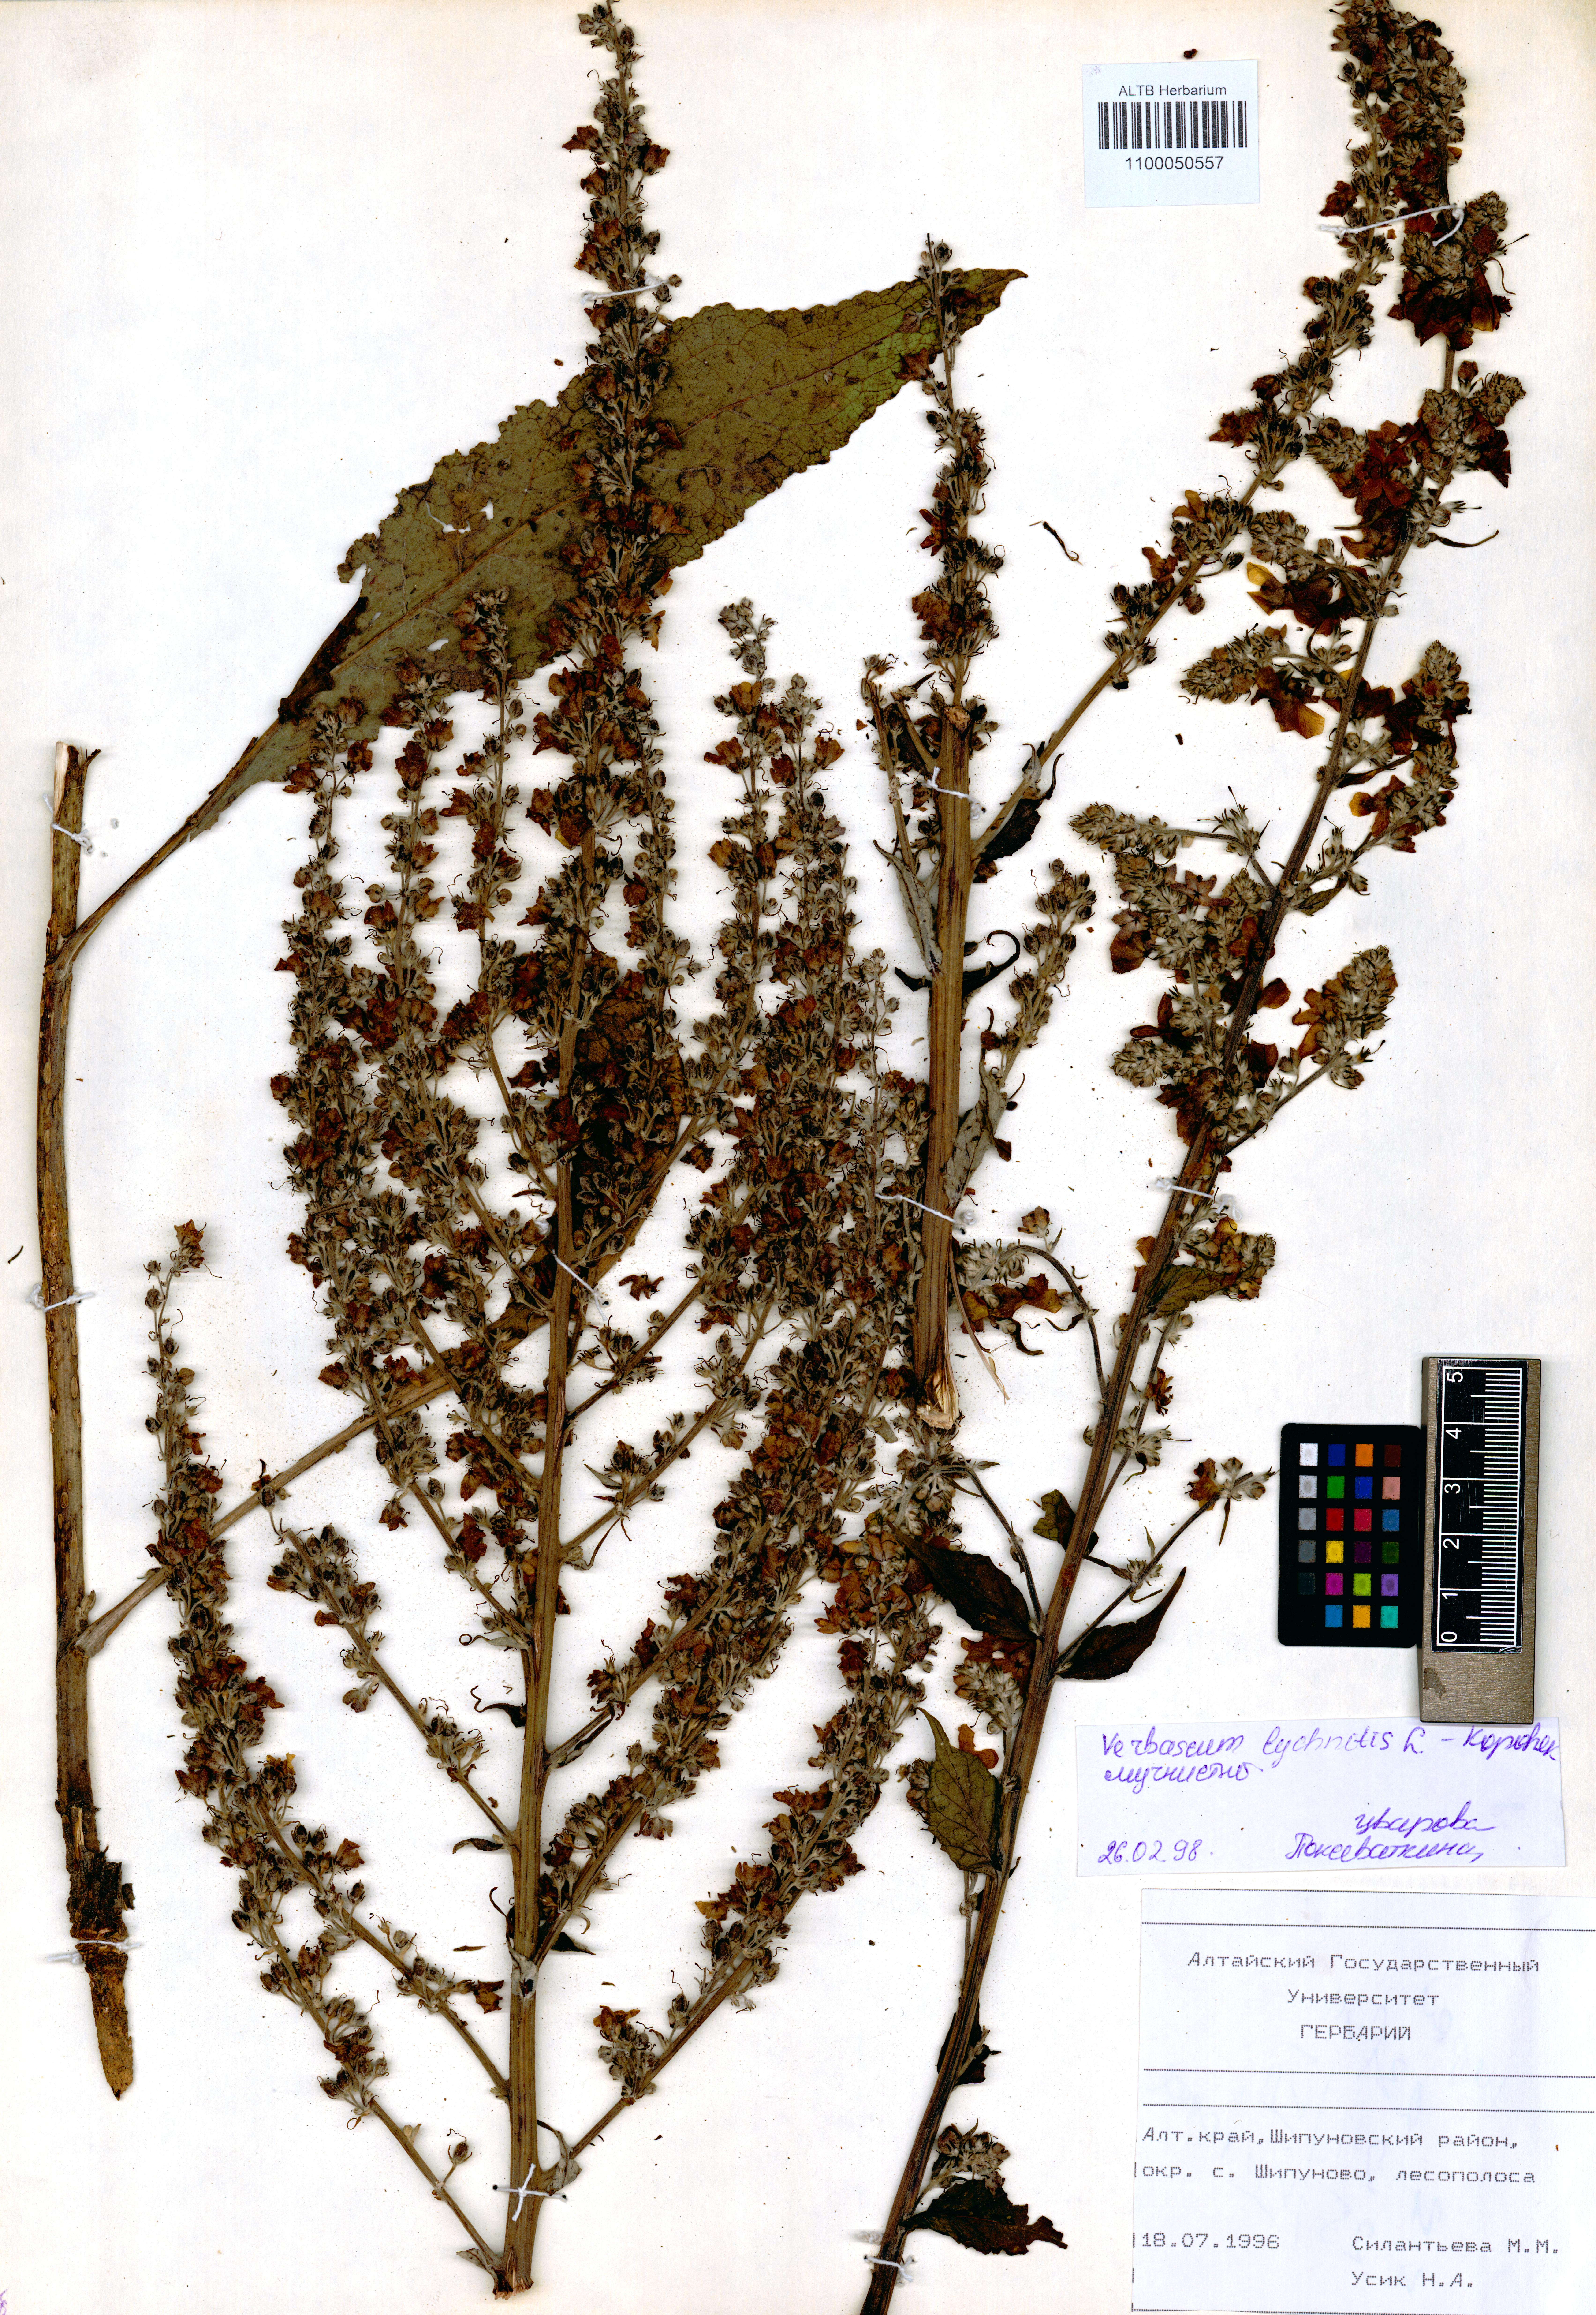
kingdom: Plantae
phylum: Tracheophyta
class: Magnoliopsida
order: Lamiales
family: Scrophulariaceae
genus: Verbascum
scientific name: Verbascum lychnitis
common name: White mullein
